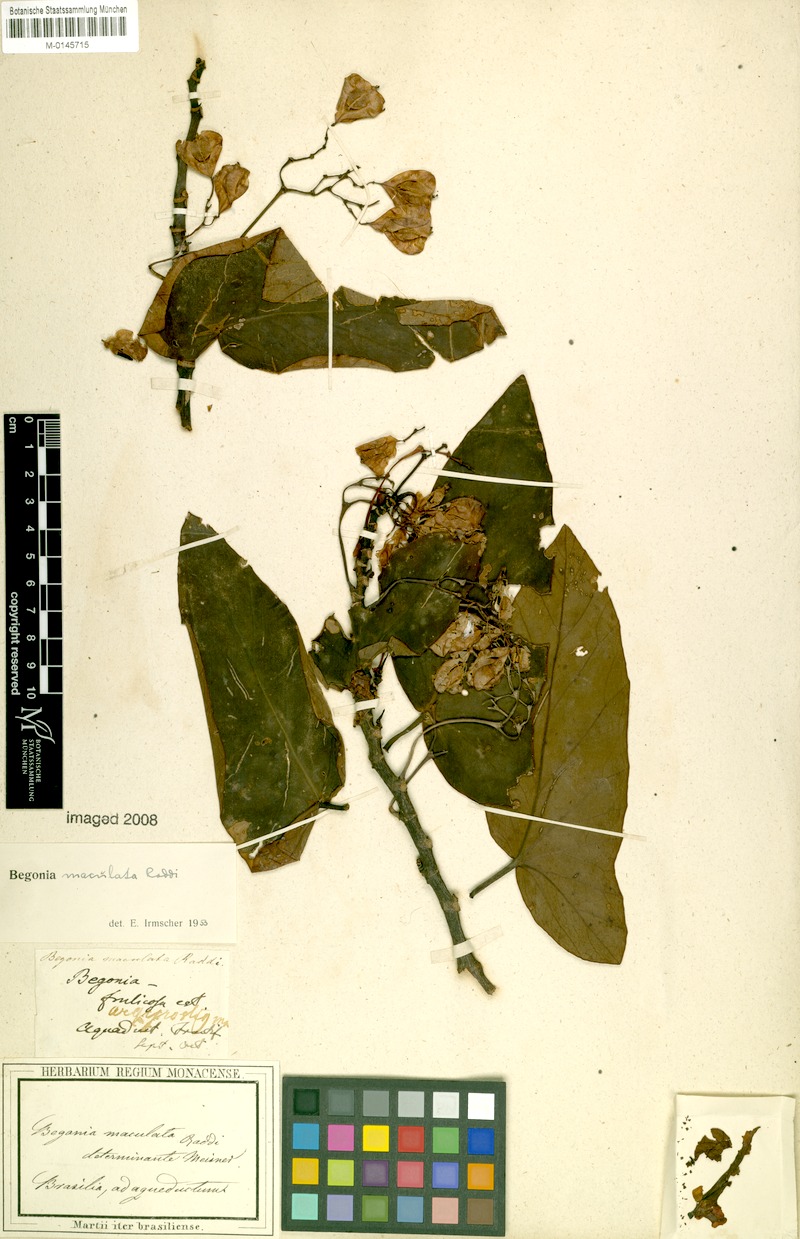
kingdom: Plantae
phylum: Tracheophyta
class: Magnoliopsida
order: Cucurbitales
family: Begoniaceae
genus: Begonia
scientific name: Begonia maculata
